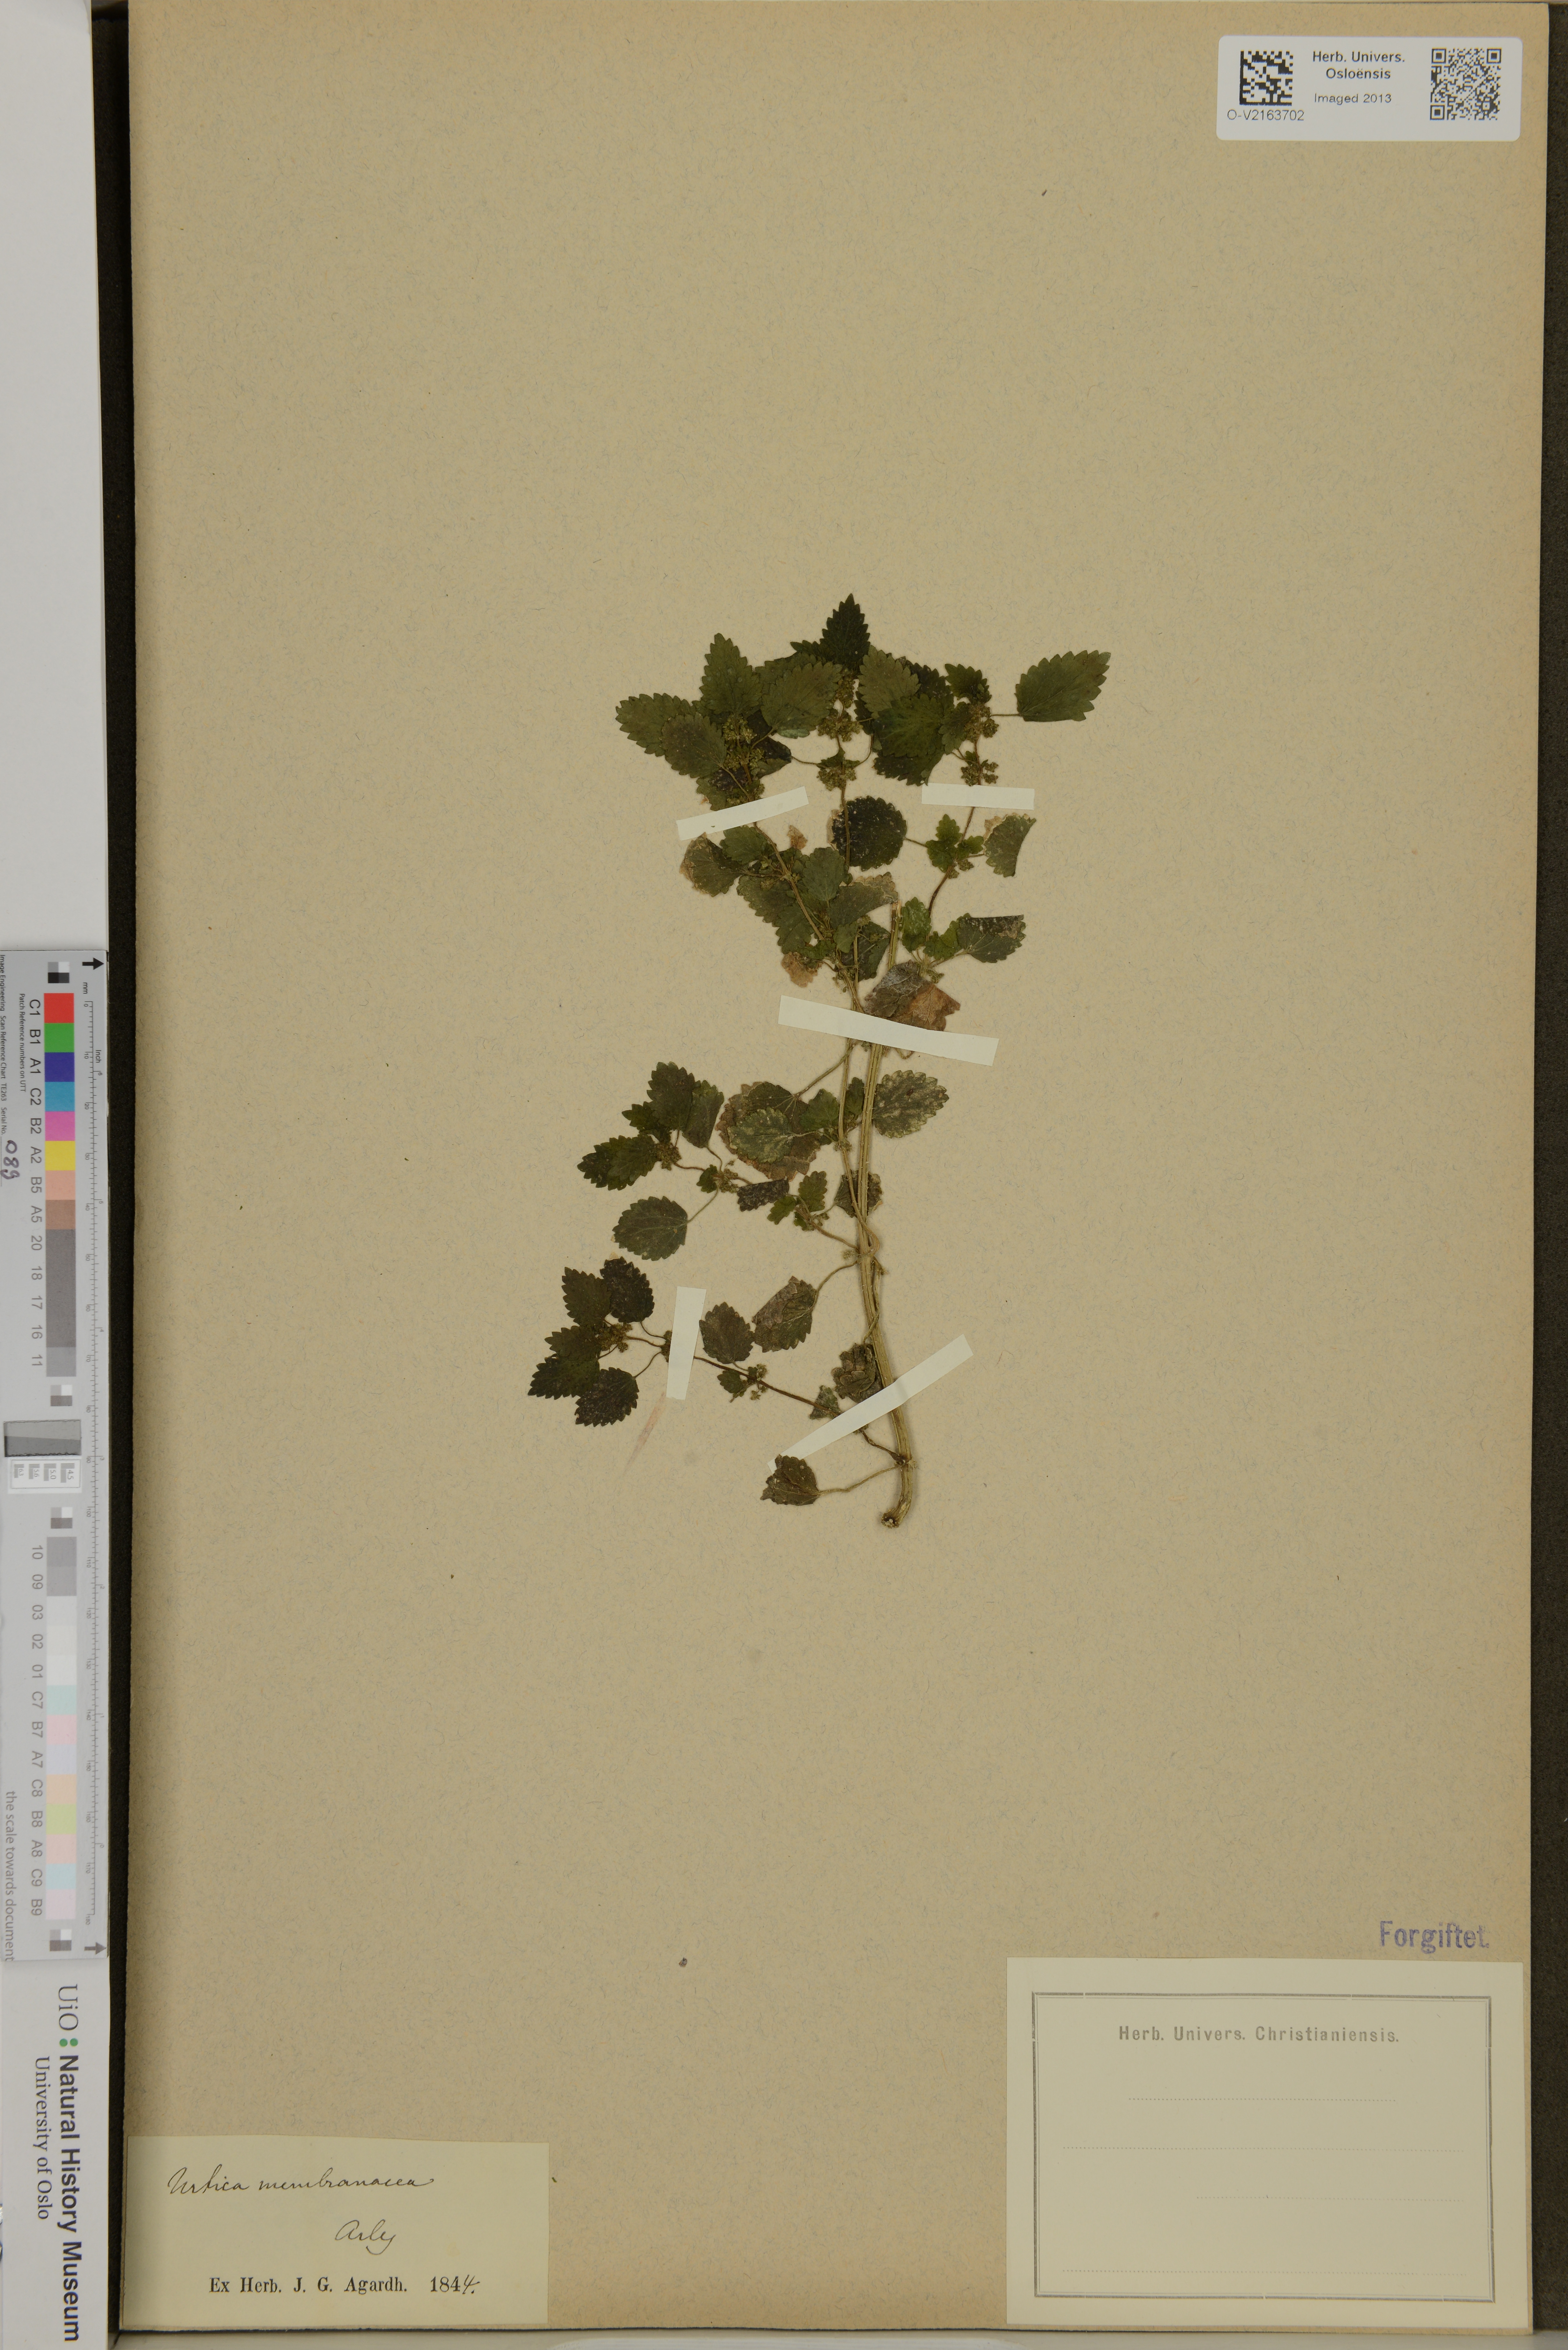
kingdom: Plantae
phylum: Tracheophyta
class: Magnoliopsida
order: Rosales
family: Urticaceae
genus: Urtica
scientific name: Urtica membranacea
